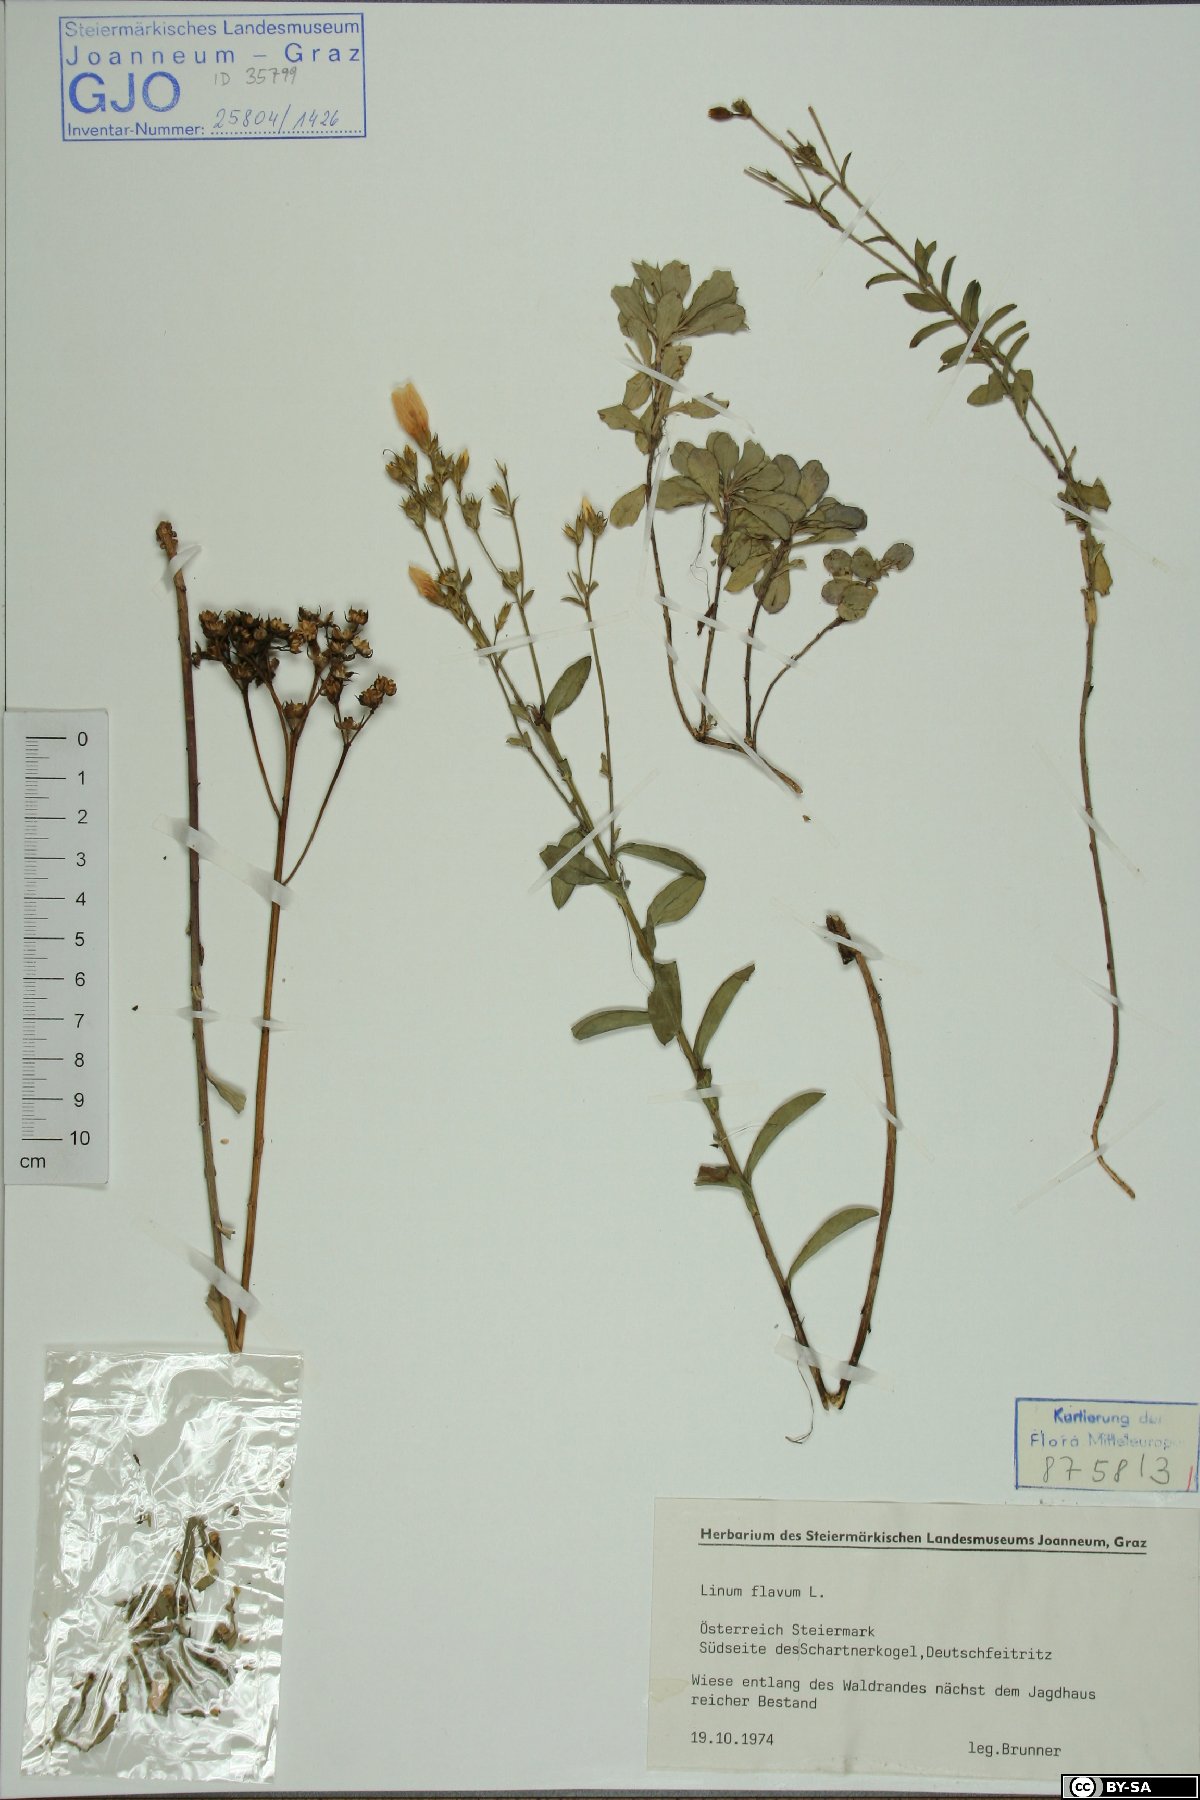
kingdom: Plantae
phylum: Tracheophyta
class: Magnoliopsida
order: Malpighiales
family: Linaceae
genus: Linum
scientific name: Linum flavum
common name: Yellow flax
